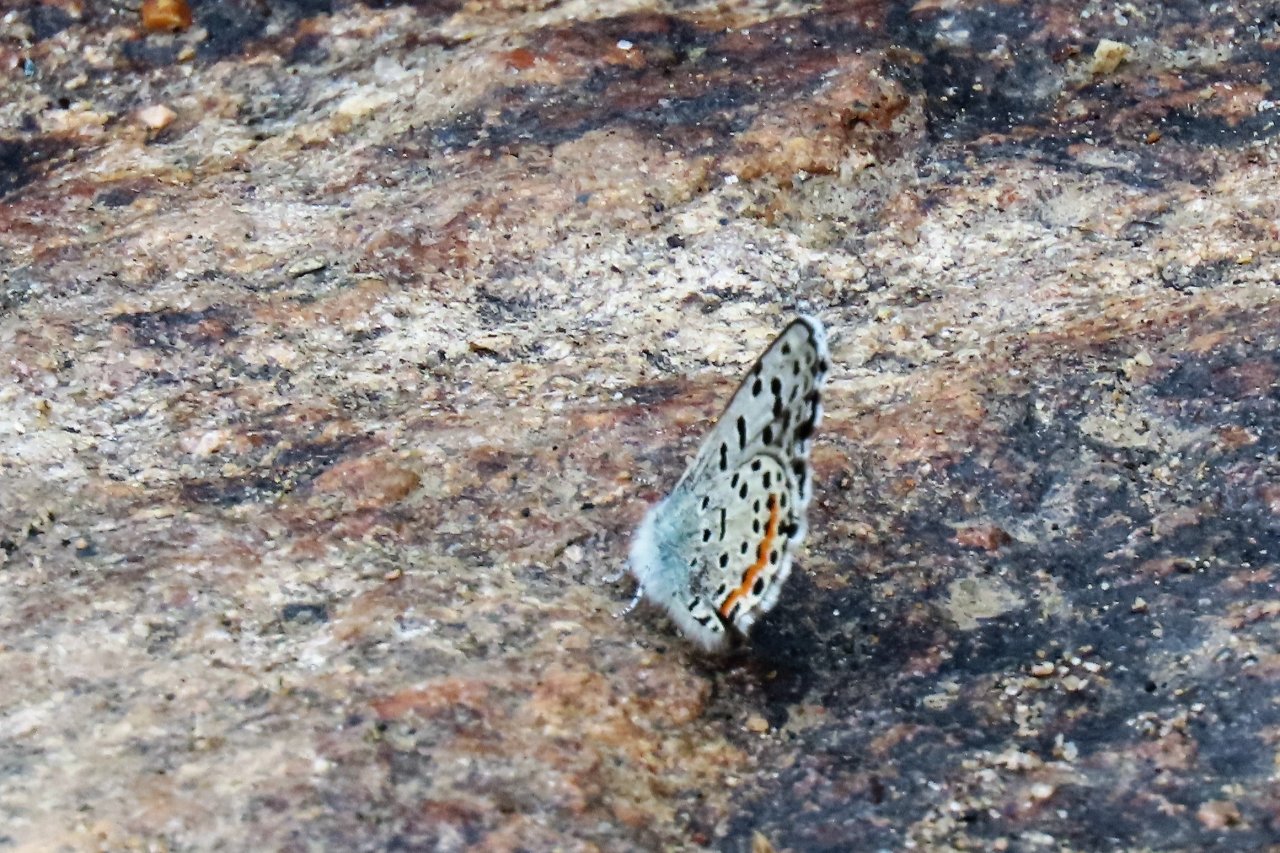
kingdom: Animalia
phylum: Arthropoda
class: Insecta
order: Lepidoptera
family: Lycaenidae
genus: Euphilotes
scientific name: Euphilotes battoides
